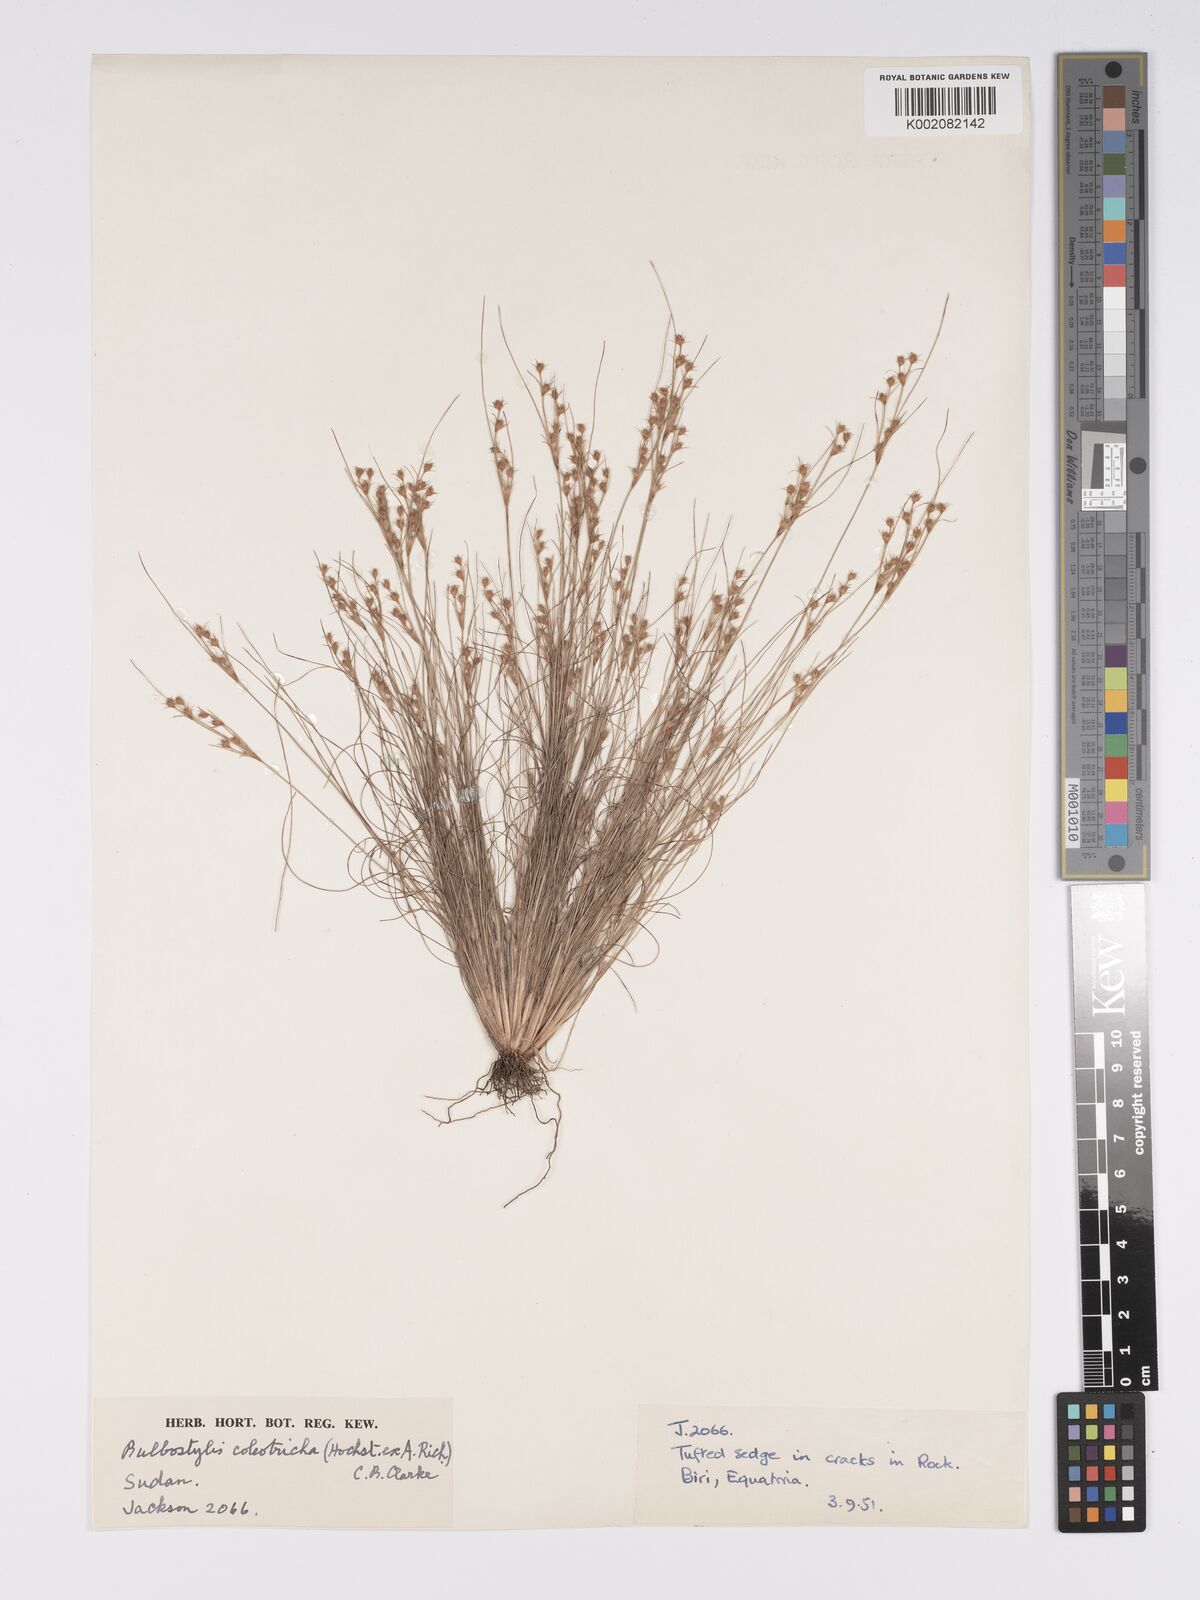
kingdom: Plantae
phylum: Tracheophyta
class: Liliopsida
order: Poales
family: Cyperaceae
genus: Bulbostylis
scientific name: Bulbostylis coleotricha
